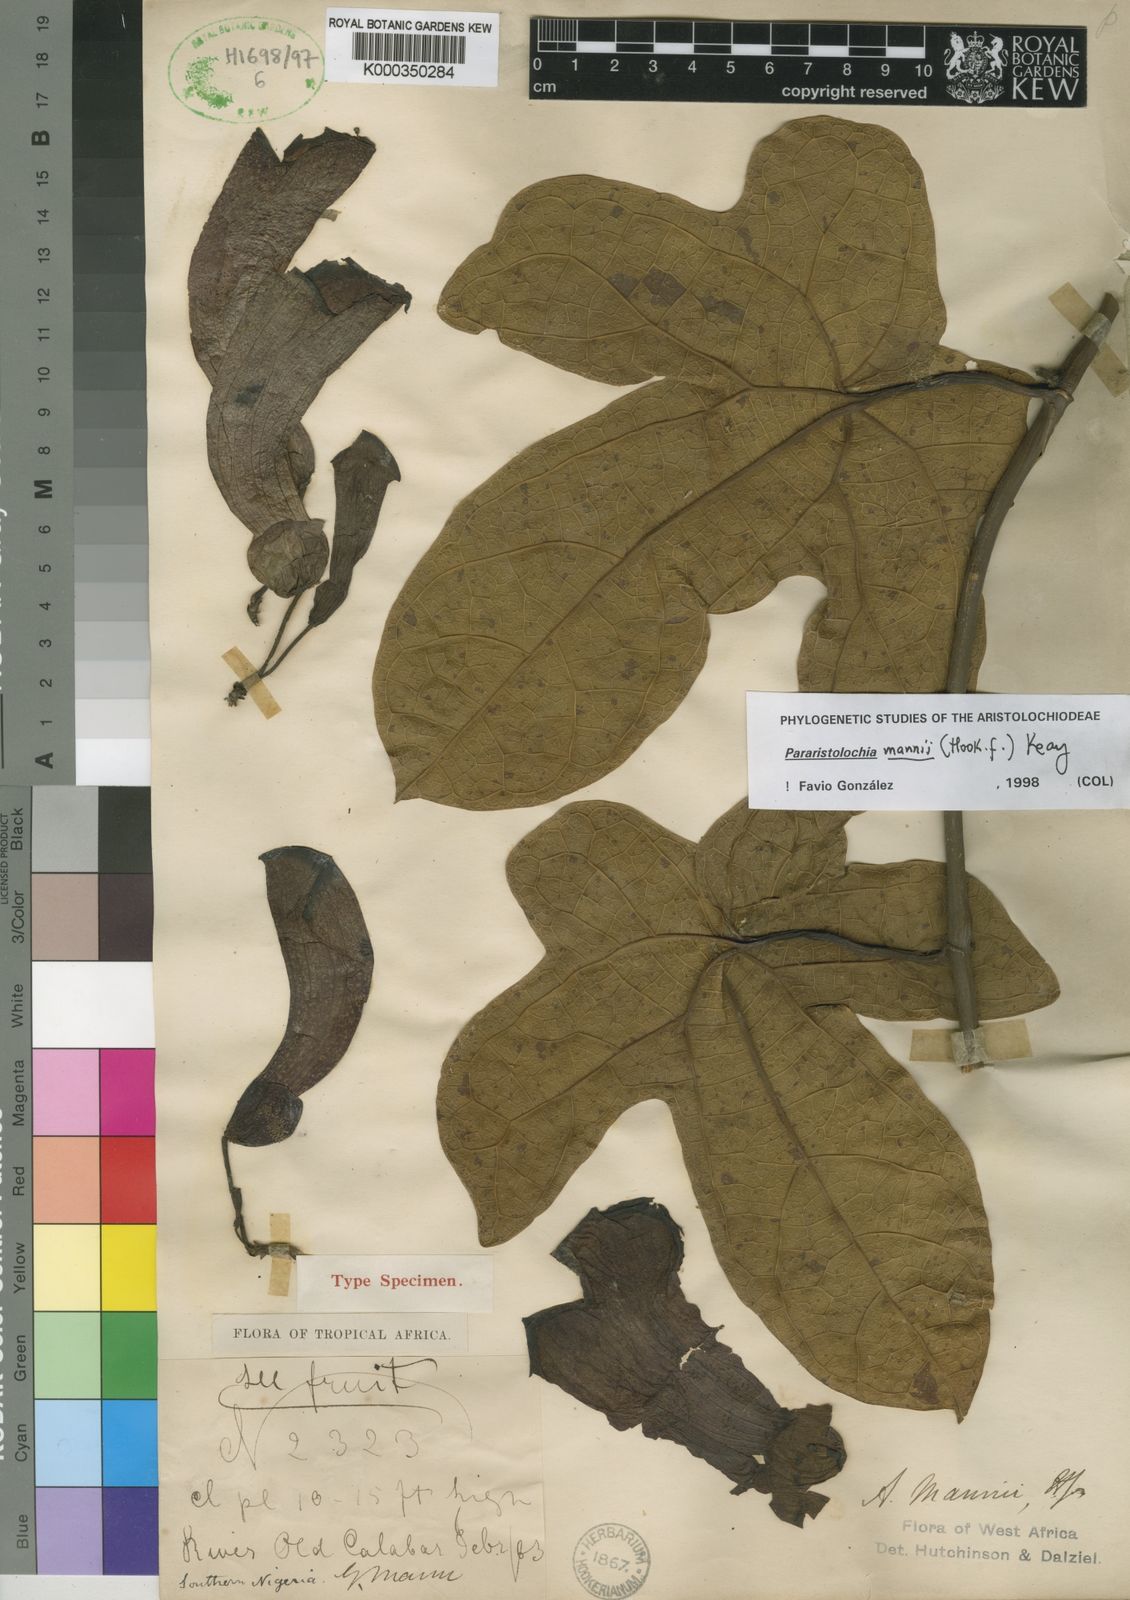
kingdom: Plantae
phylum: Tracheophyta
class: Magnoliopsida
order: Piperales
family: Aristolochiaceae
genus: Aristolochia
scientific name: Aristolochia mannii
